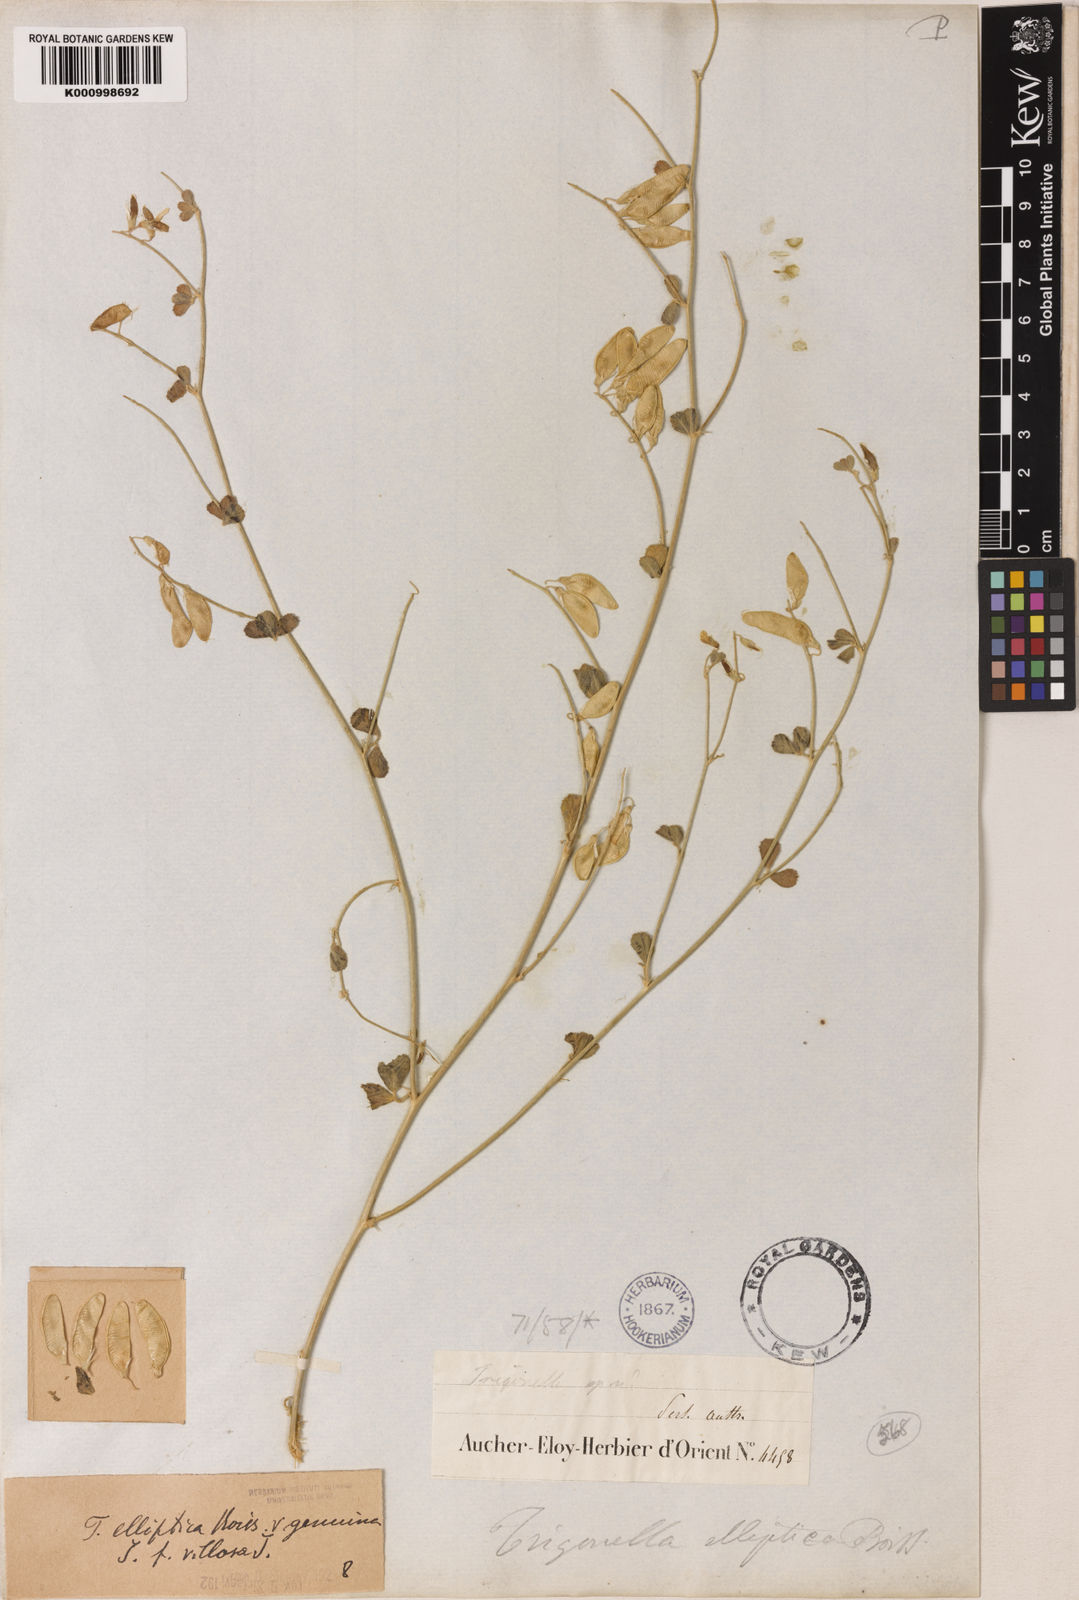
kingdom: Plantae
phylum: Tracheophyta
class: Magnoliopsida
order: Fabales
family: Fabaceae
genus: Trigonella
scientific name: Trigonella elliptica
